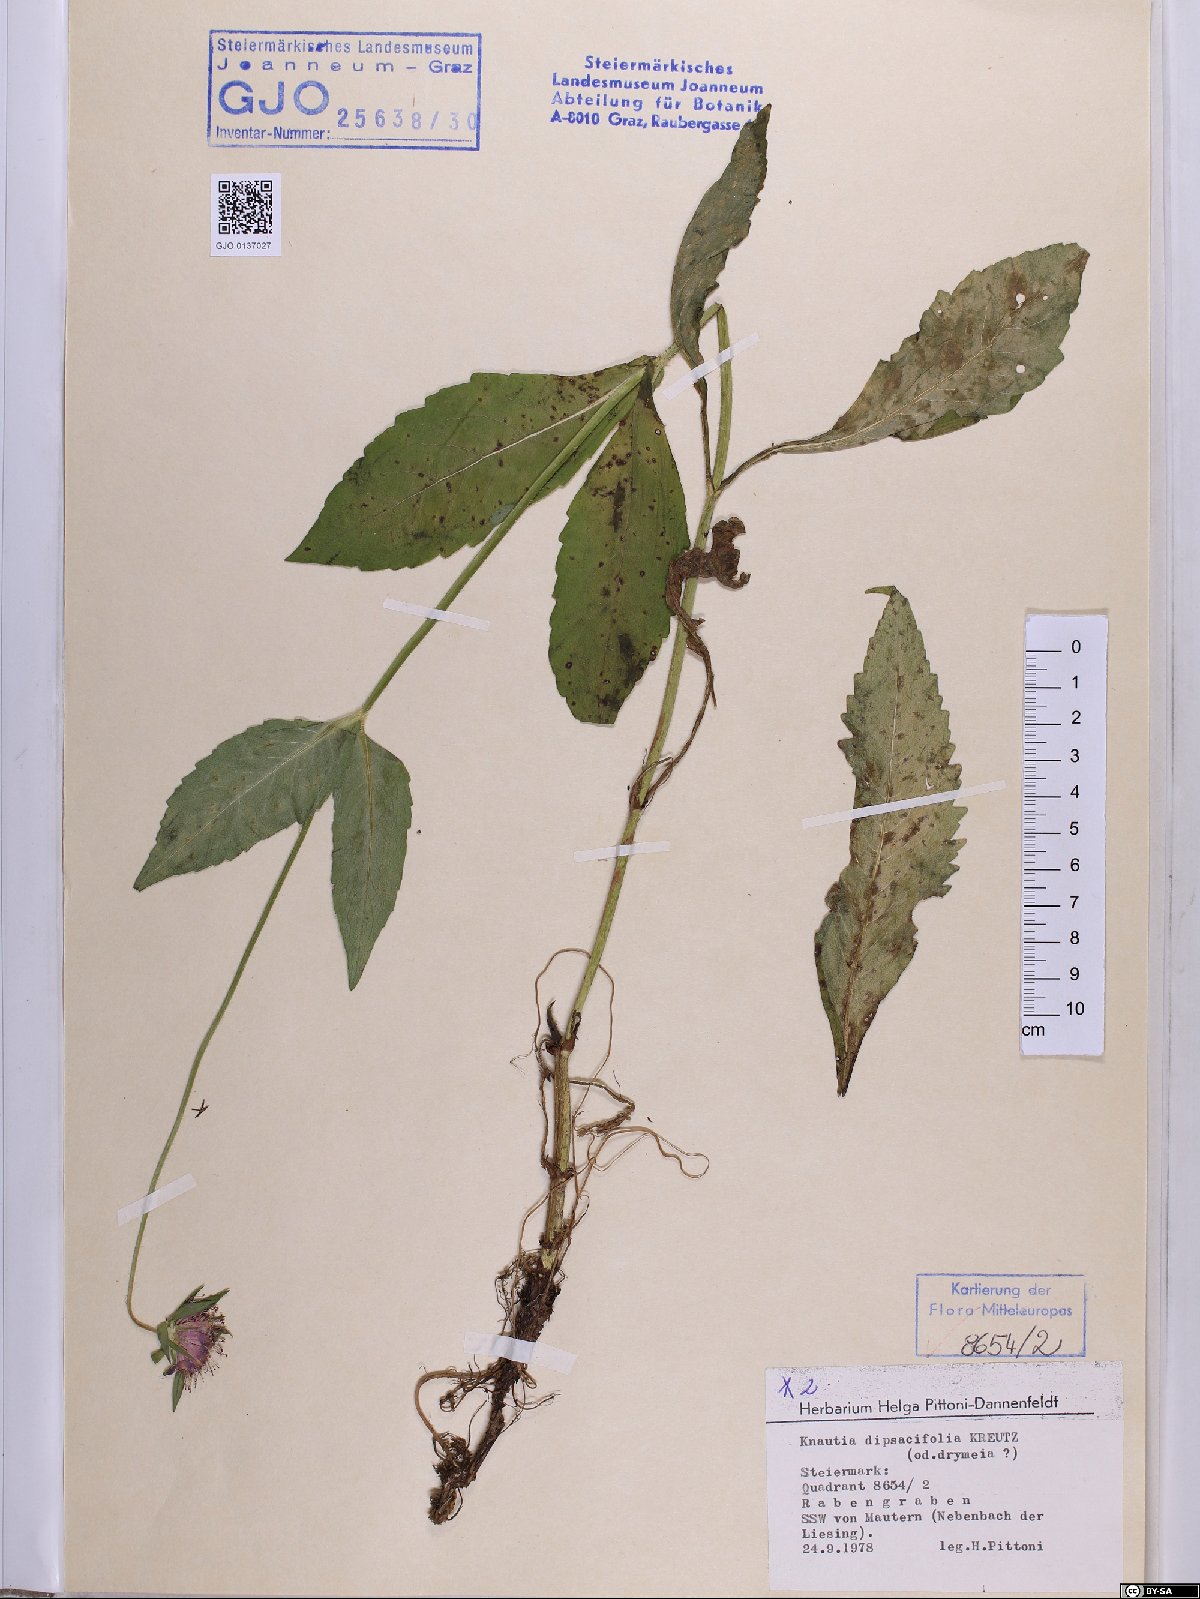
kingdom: Plantae
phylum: Tracheophyta
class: Magnoliopsida
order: Dipsacales
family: Caprifoliaceae
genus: Knautia
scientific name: Knautia dipsacifolia
